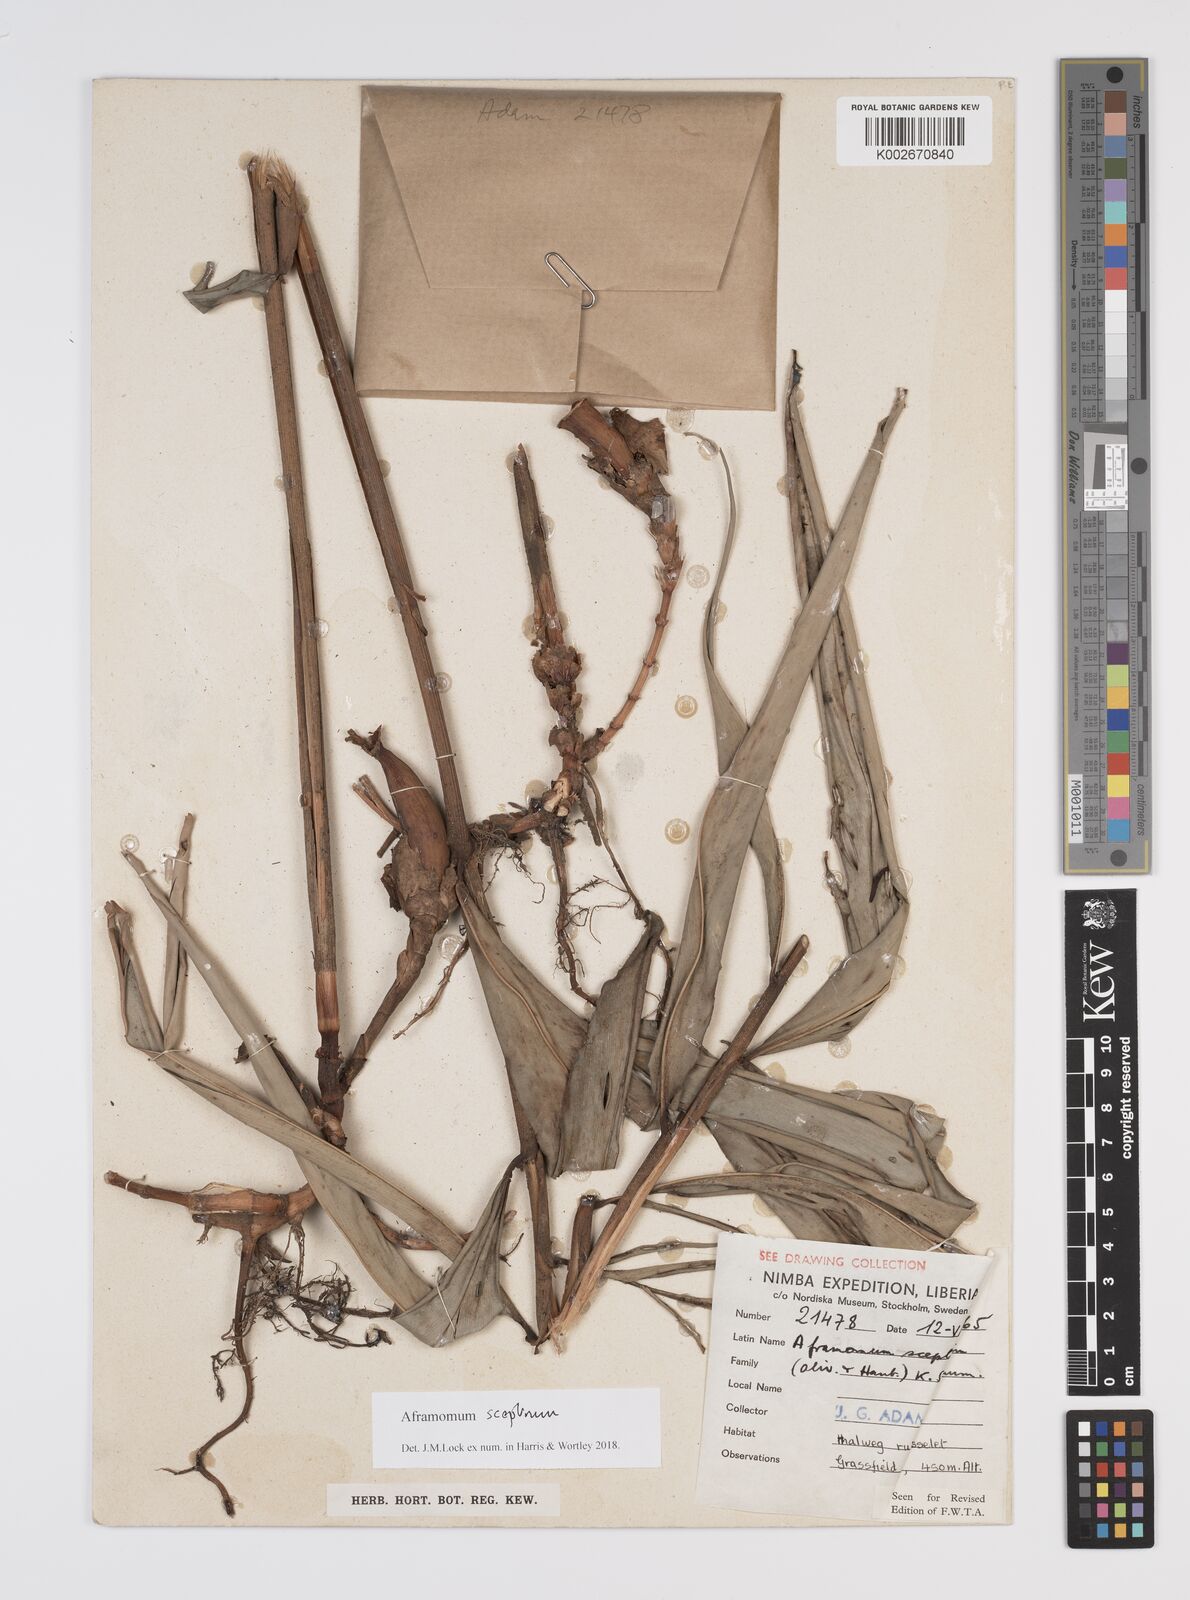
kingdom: Plantae
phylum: Tracheophyta
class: Liliopsida
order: Zingiberales
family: Zingiberaceae
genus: Aframomum
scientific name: Aframomum cereum
